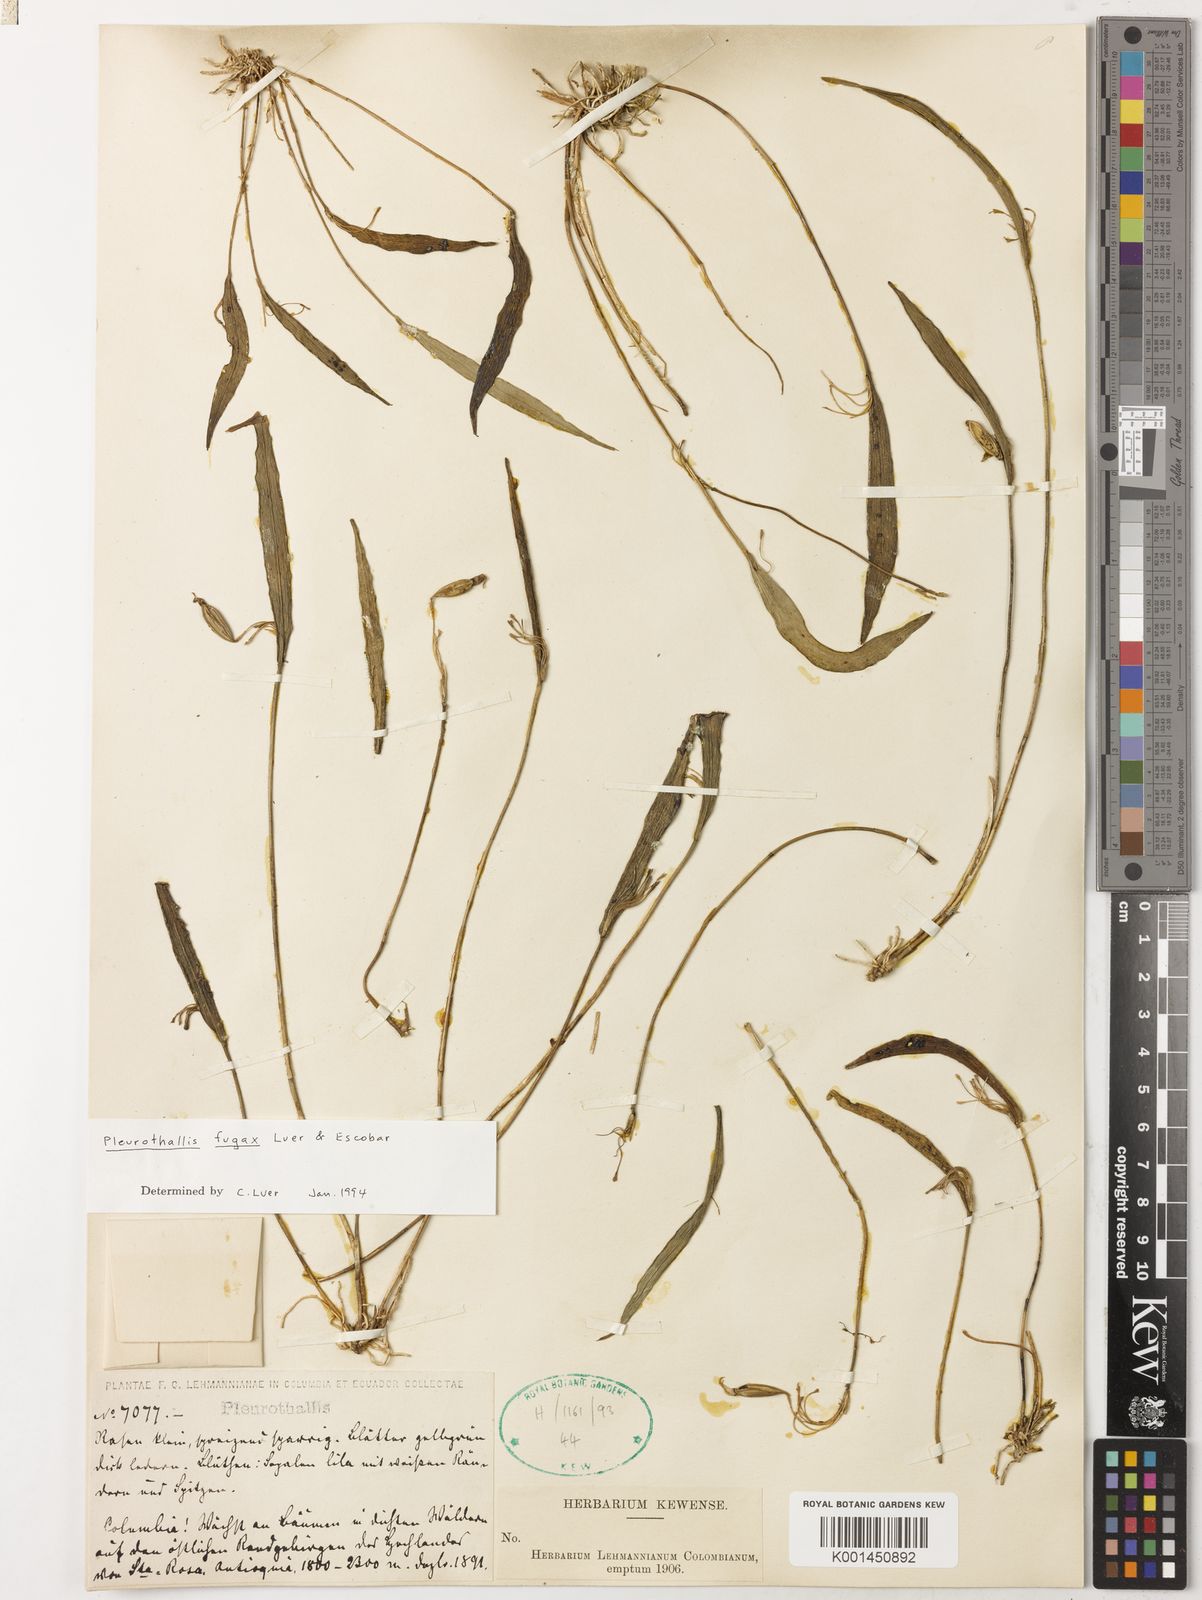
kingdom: Plantae
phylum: Tracheophyta
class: Liliopsida
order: Asparagales
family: Orchidaceae
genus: Pleurothallis
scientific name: Pleurothallis fugax
